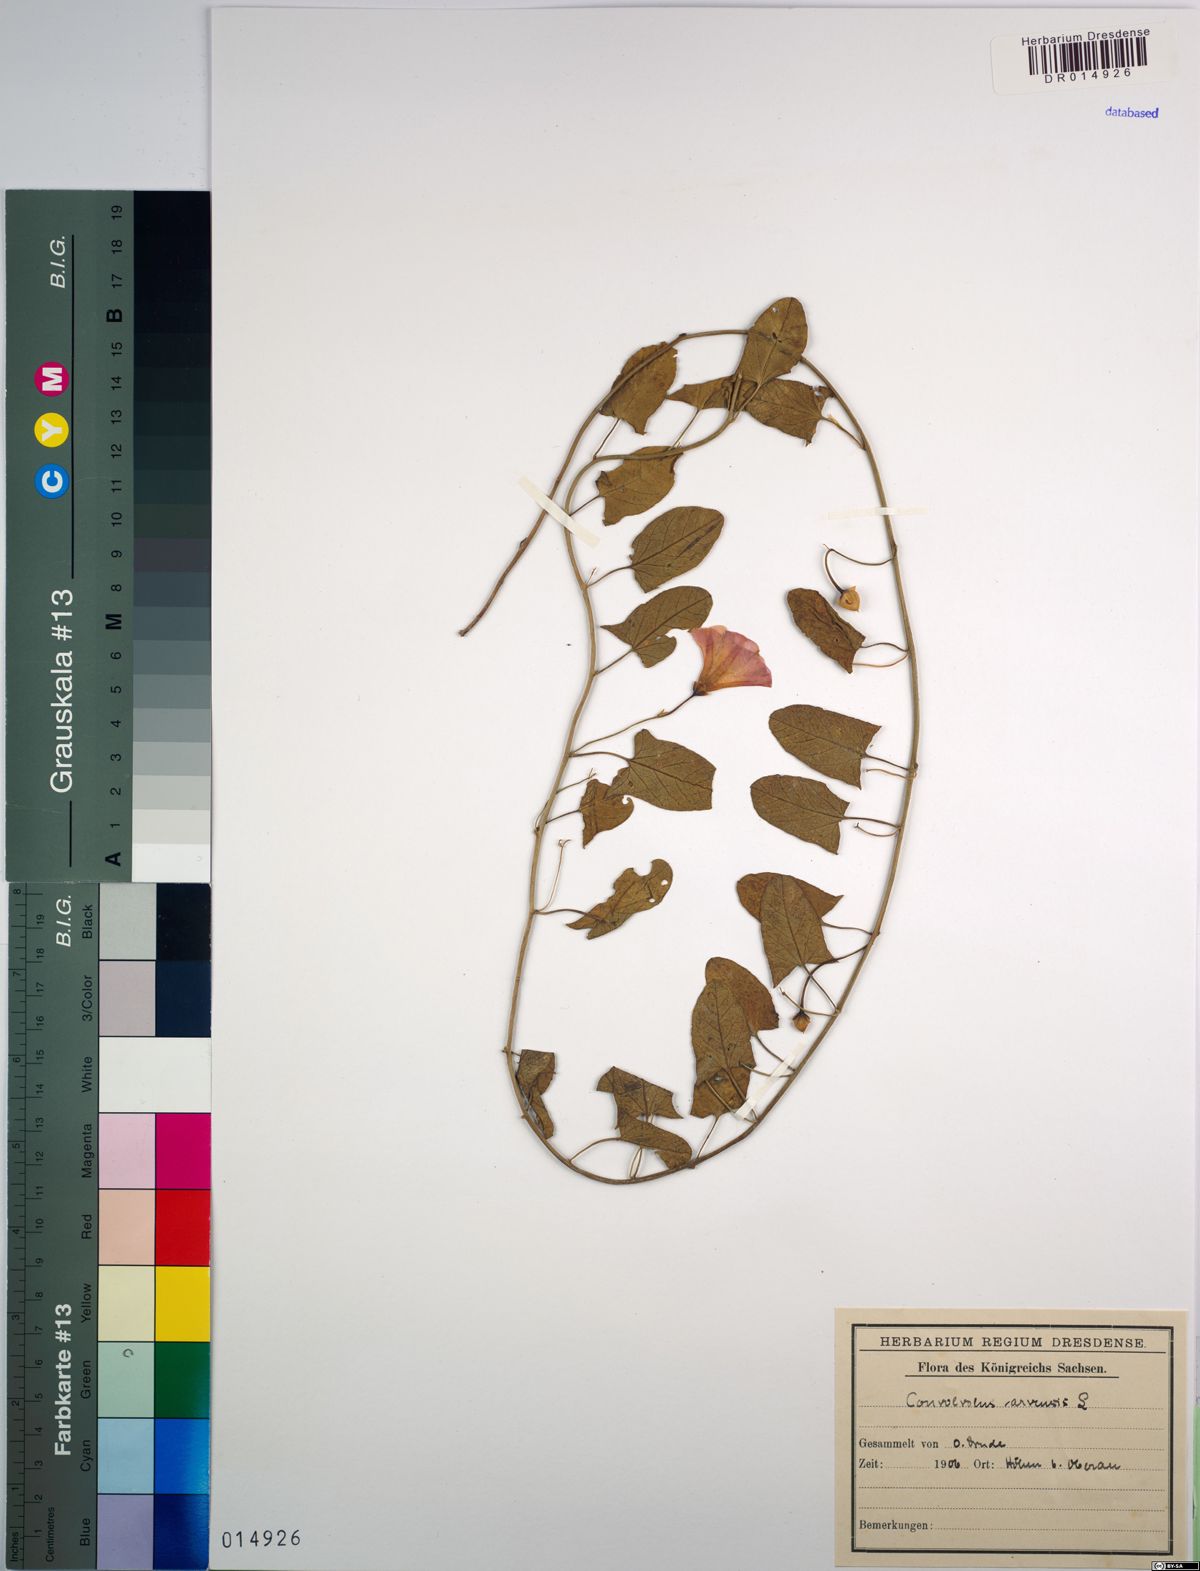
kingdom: Plantae
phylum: Tracheophyta
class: Magnoliopsida
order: Solanales
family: Convolvulaceae
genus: Convolvulus
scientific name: Convolvulus arvensis
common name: Field bindweed
